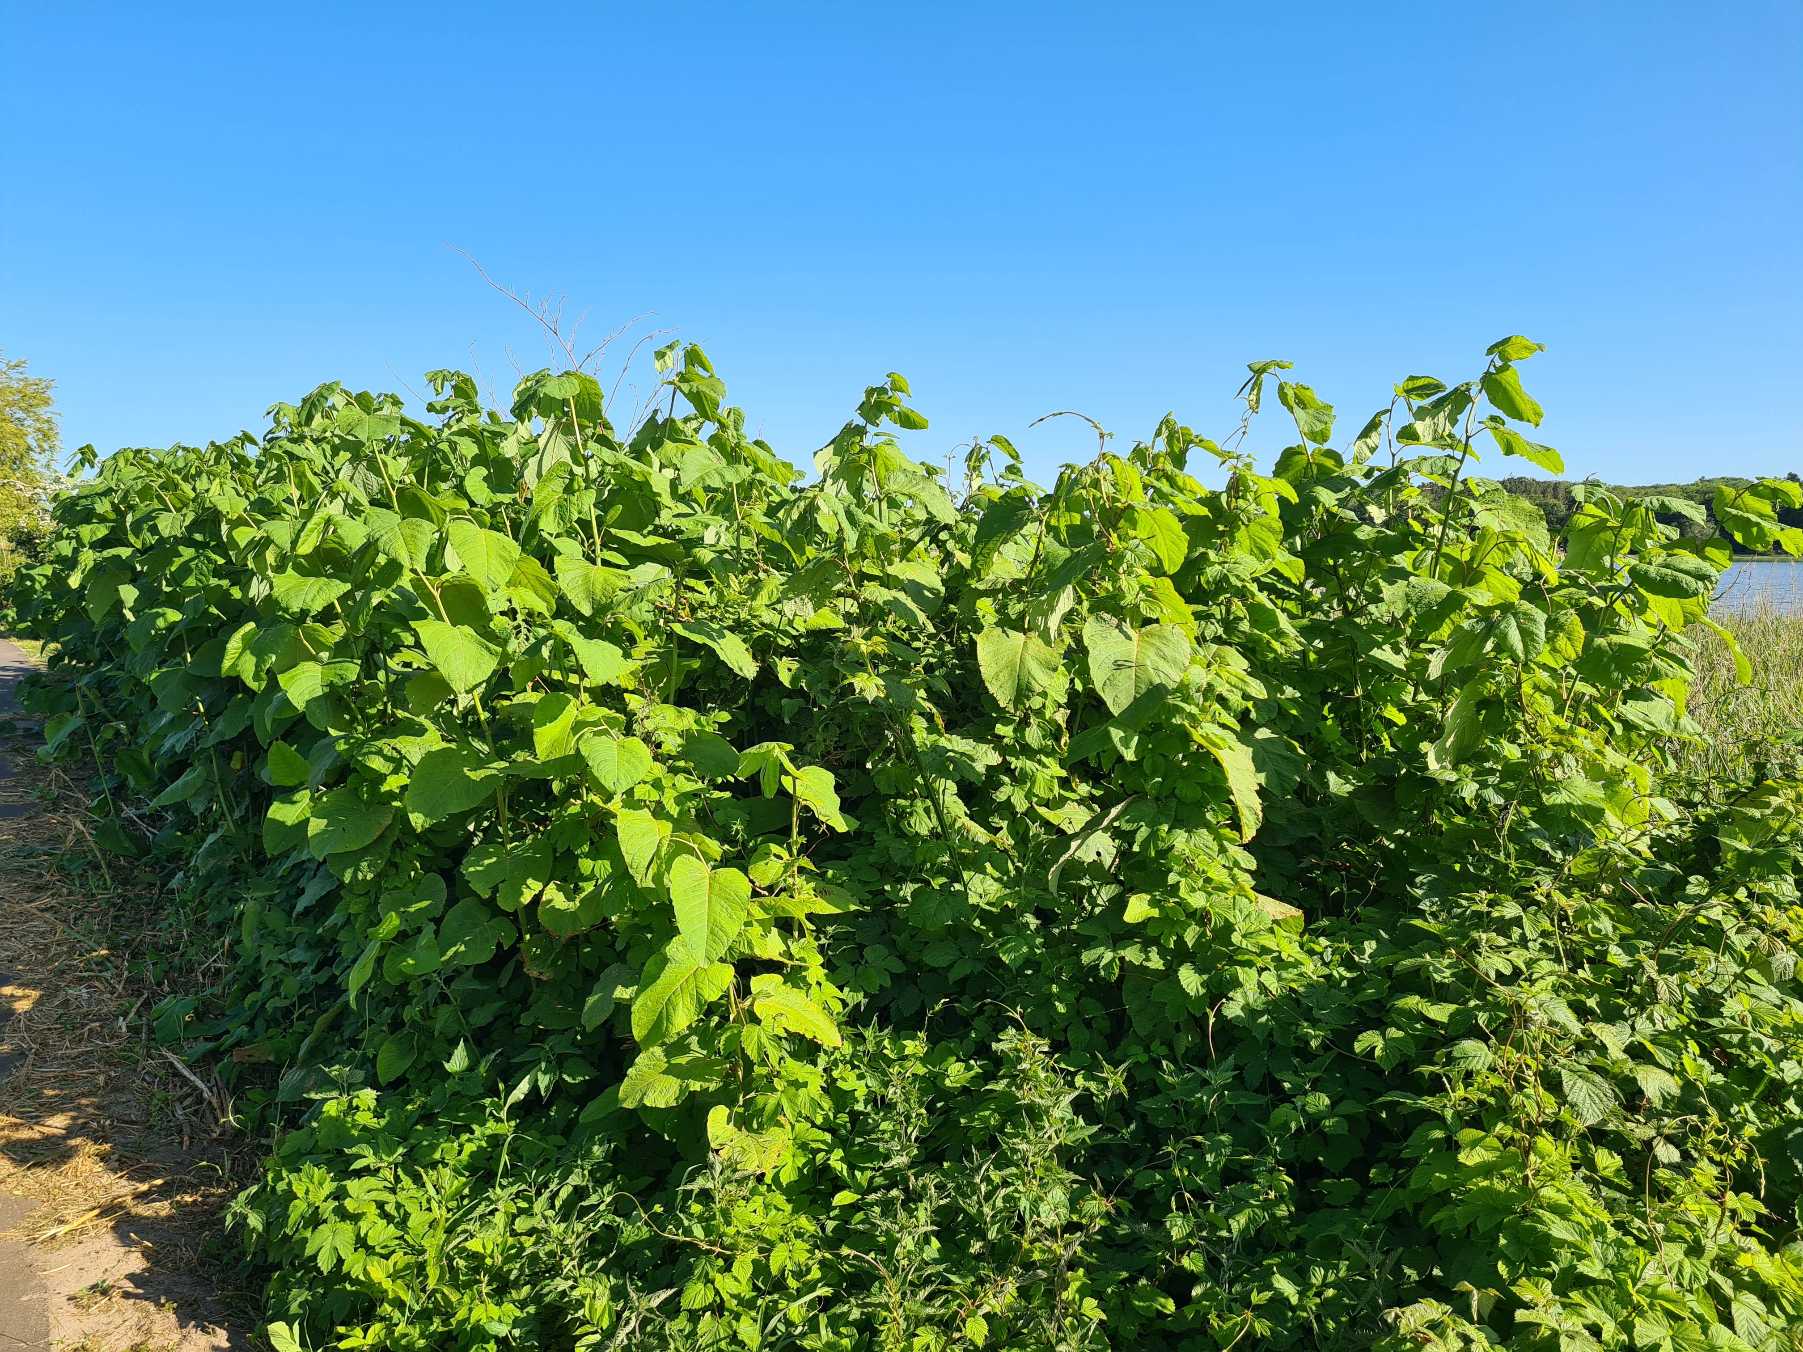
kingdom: Plantae
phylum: Tracheophyta
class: Magnoliopsida
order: Caryophyllales
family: Polygonaceae
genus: Reynoutria
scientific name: Reynoutria sachalinensis
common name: Kæmpe-pileurt
